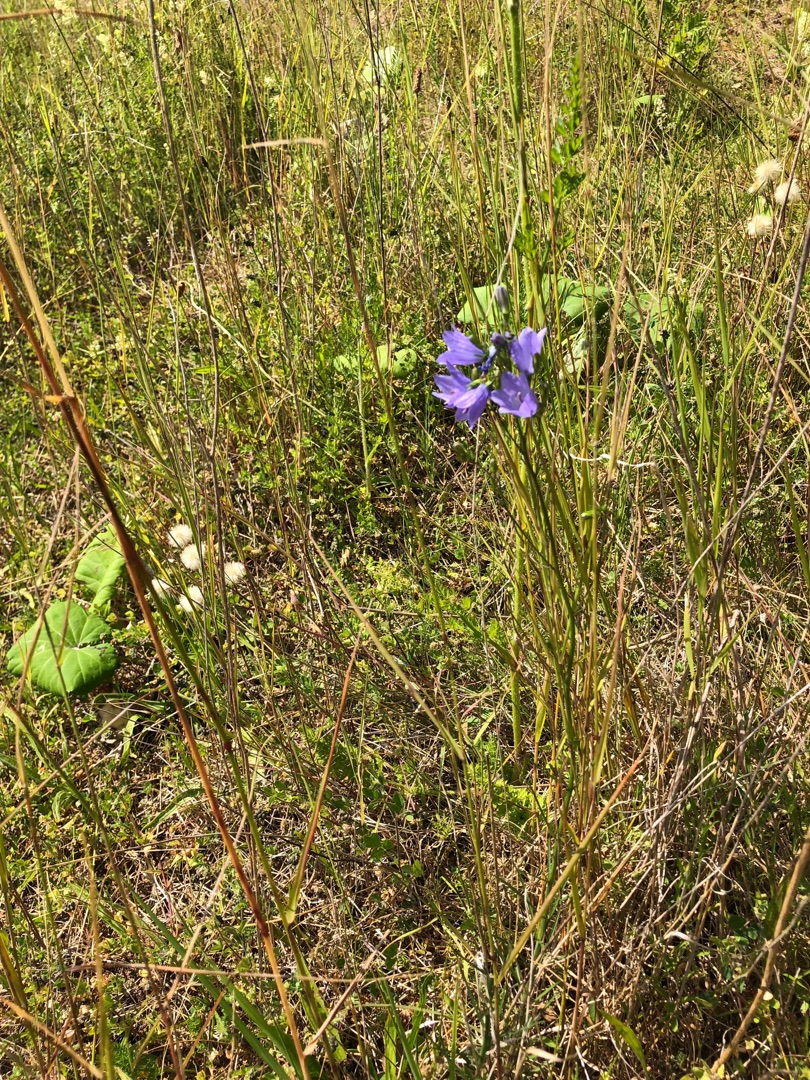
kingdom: Plantae
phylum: Tracheophyta
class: Magnoliopsida
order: Asterales
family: Campanulaceae
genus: Campanula
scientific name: Campanula rotundifolia
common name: Liden klokke
